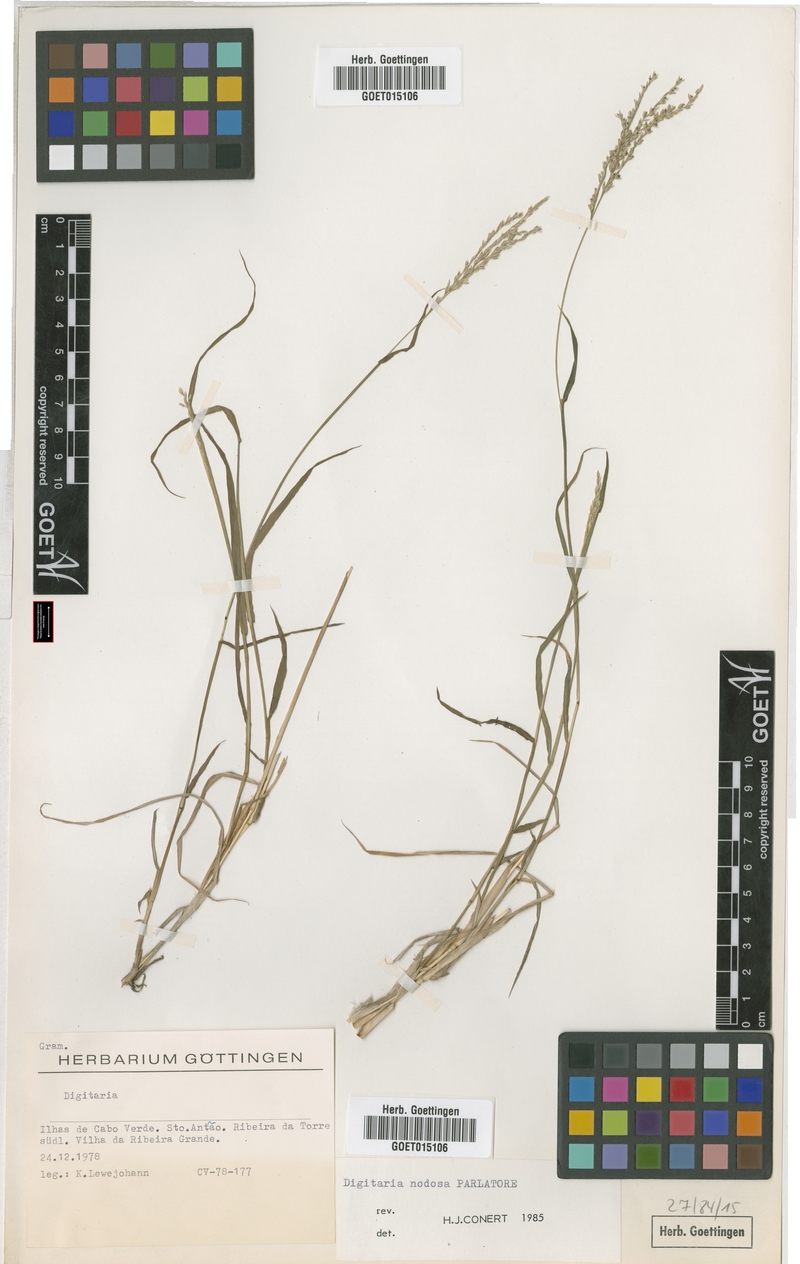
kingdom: Plantae
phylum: Tracheophyta
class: Liliopsida
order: Poales
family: Poaceae
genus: Digitaria
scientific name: Digitaria nodosa
